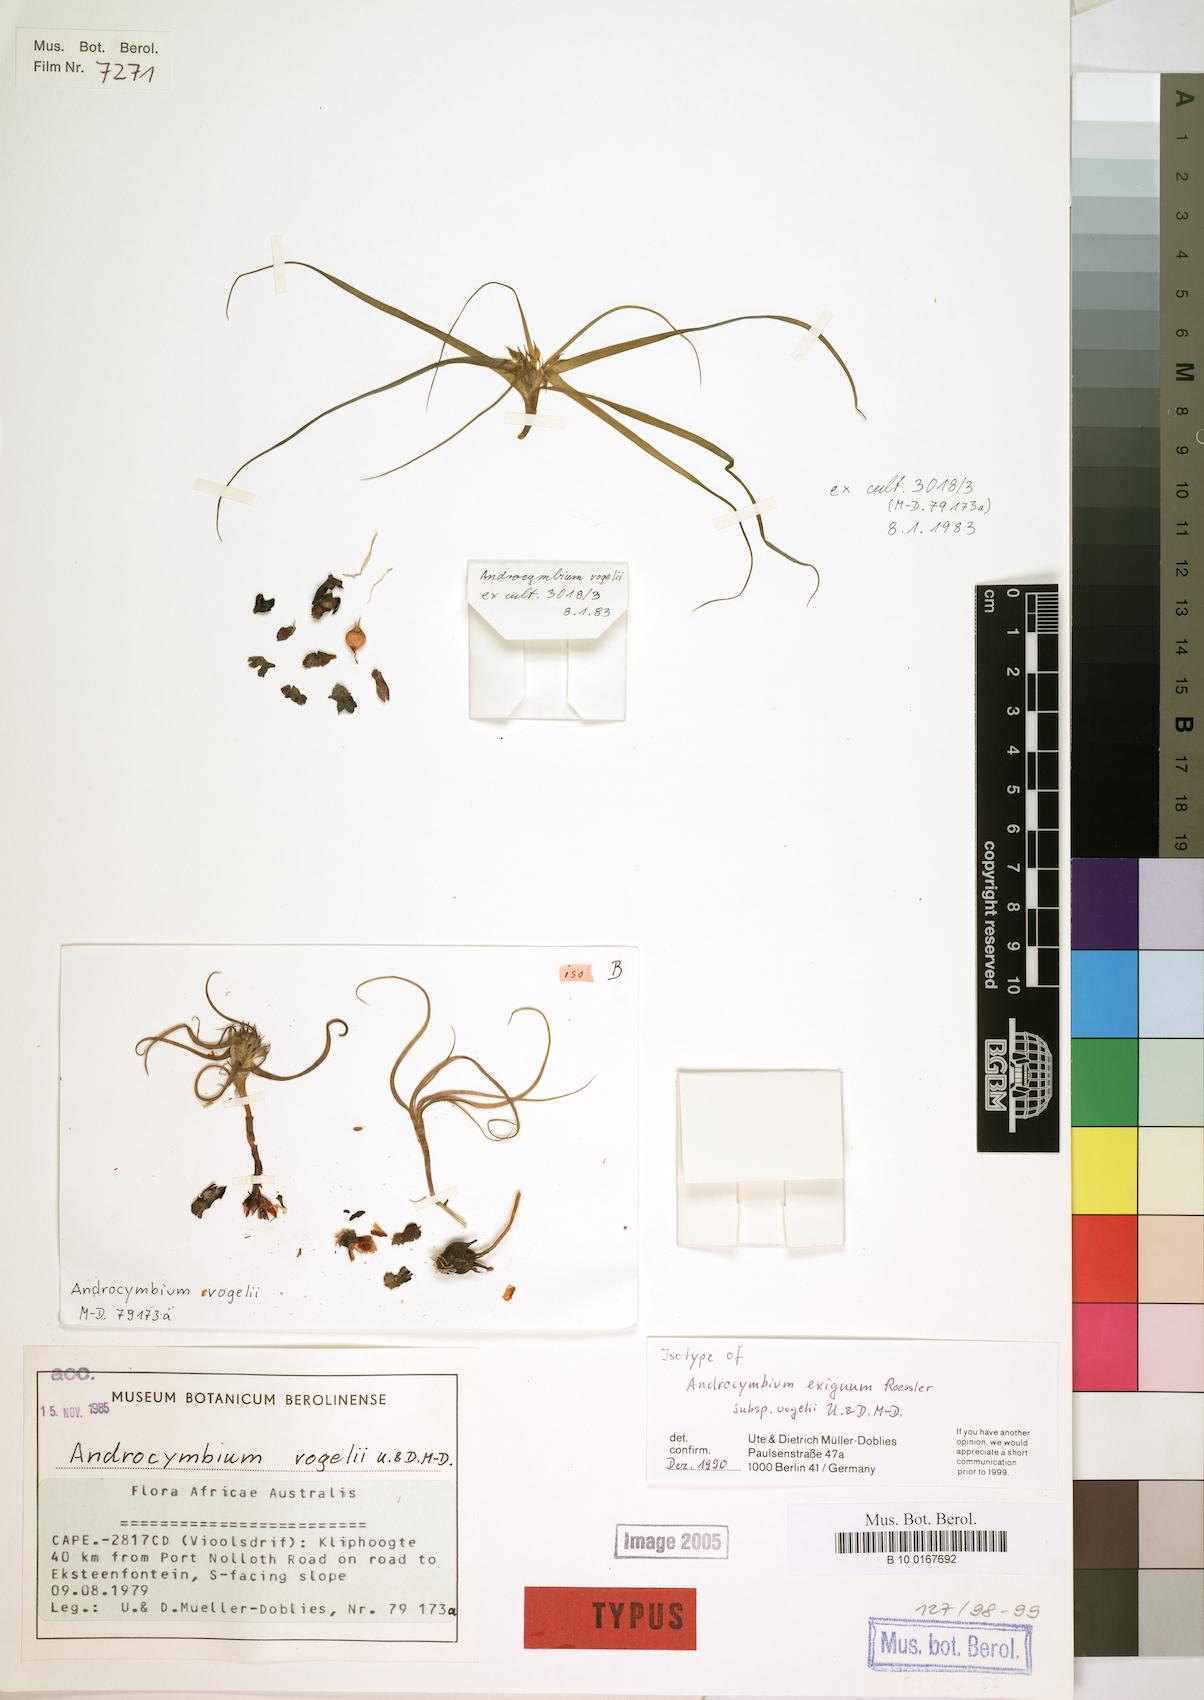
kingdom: Plantae
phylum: Tracheophyta
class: Liliopsida
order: Liliales
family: Colchicaceae
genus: Colchicum
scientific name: Colchicum exiguum
